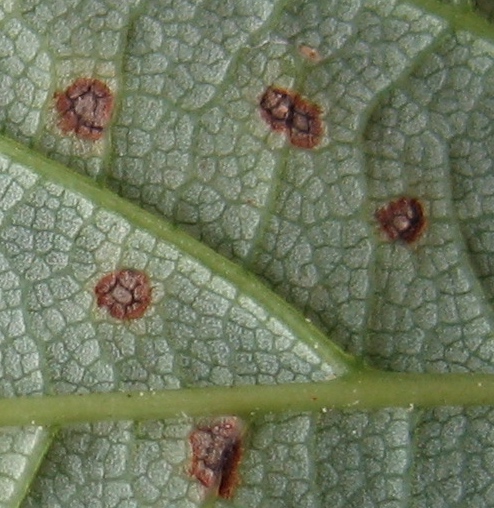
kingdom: Fungi
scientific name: Fungi
